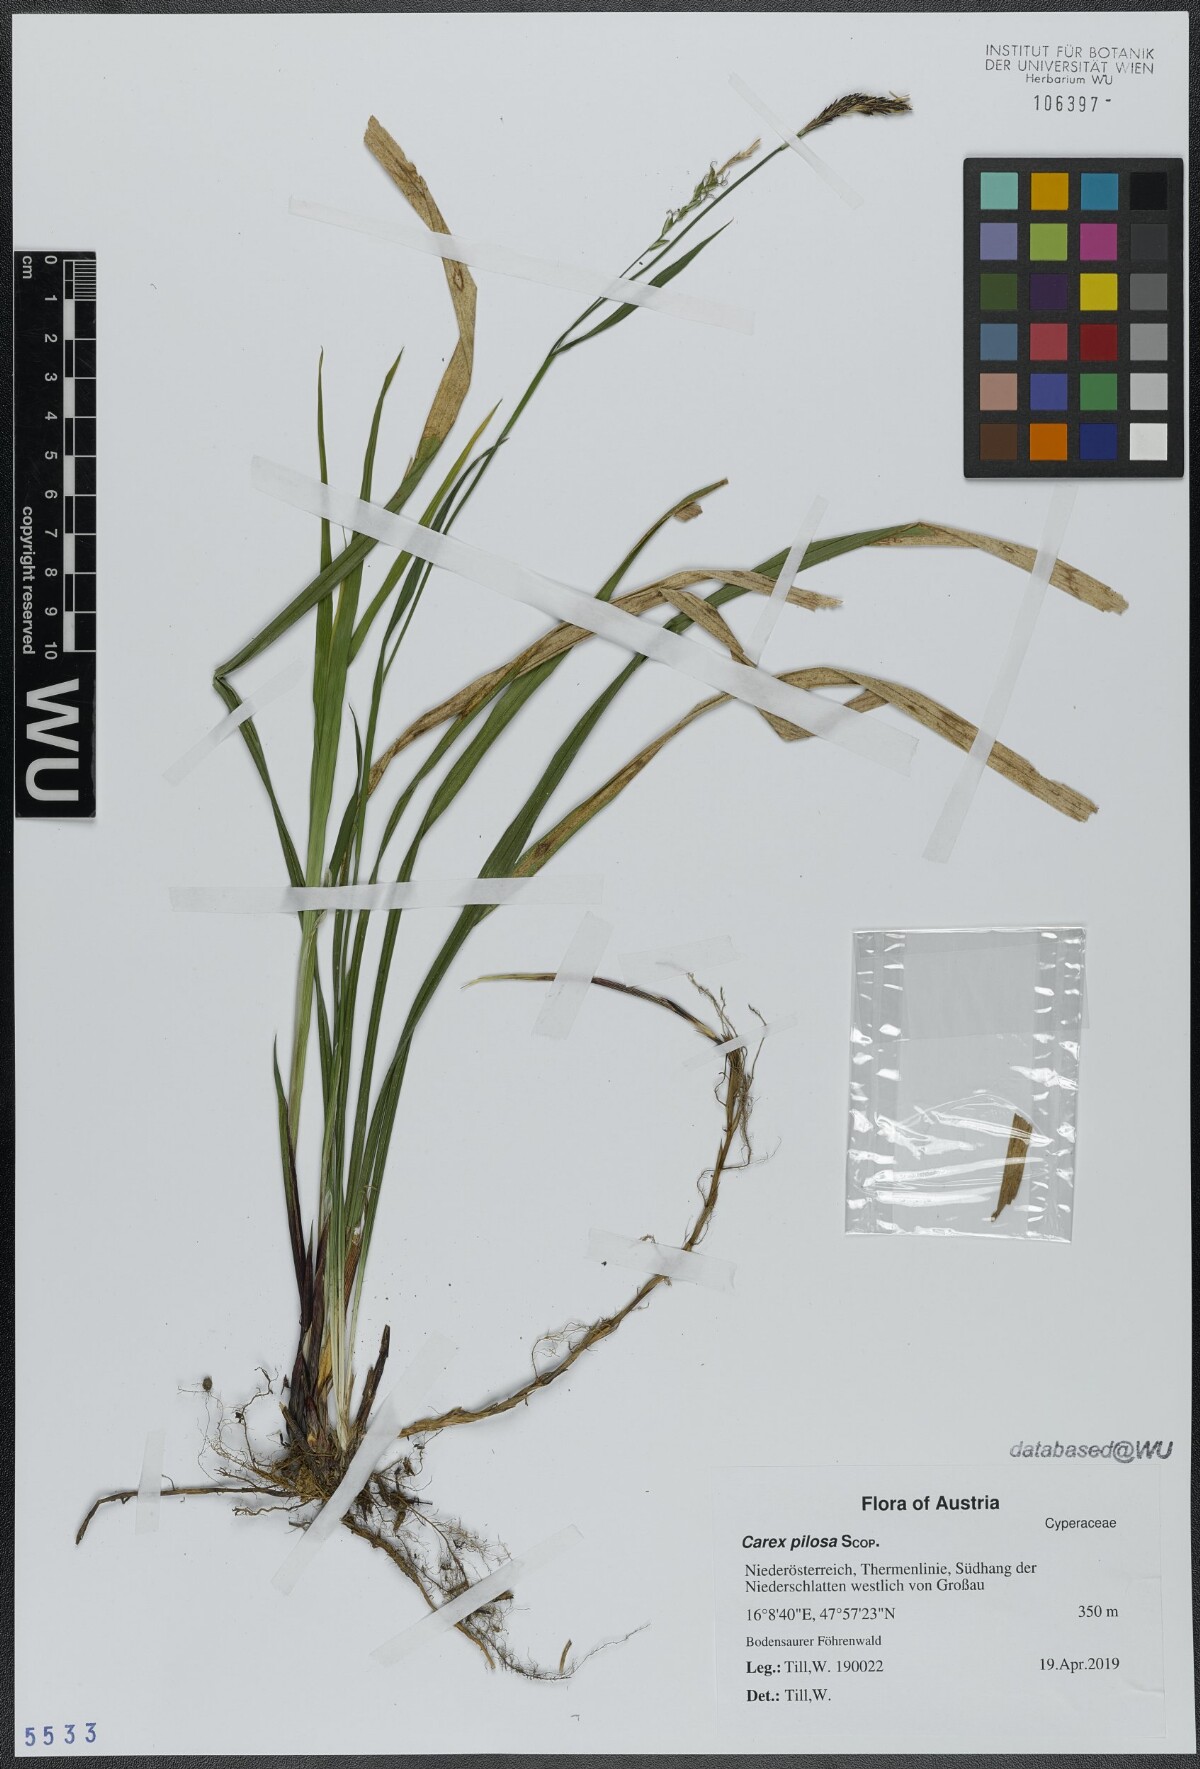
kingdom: Plantae
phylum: Tracheophyta
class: Liliopsida
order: Poales
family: Cyperaceae
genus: Carex
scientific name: Carex pilosa
